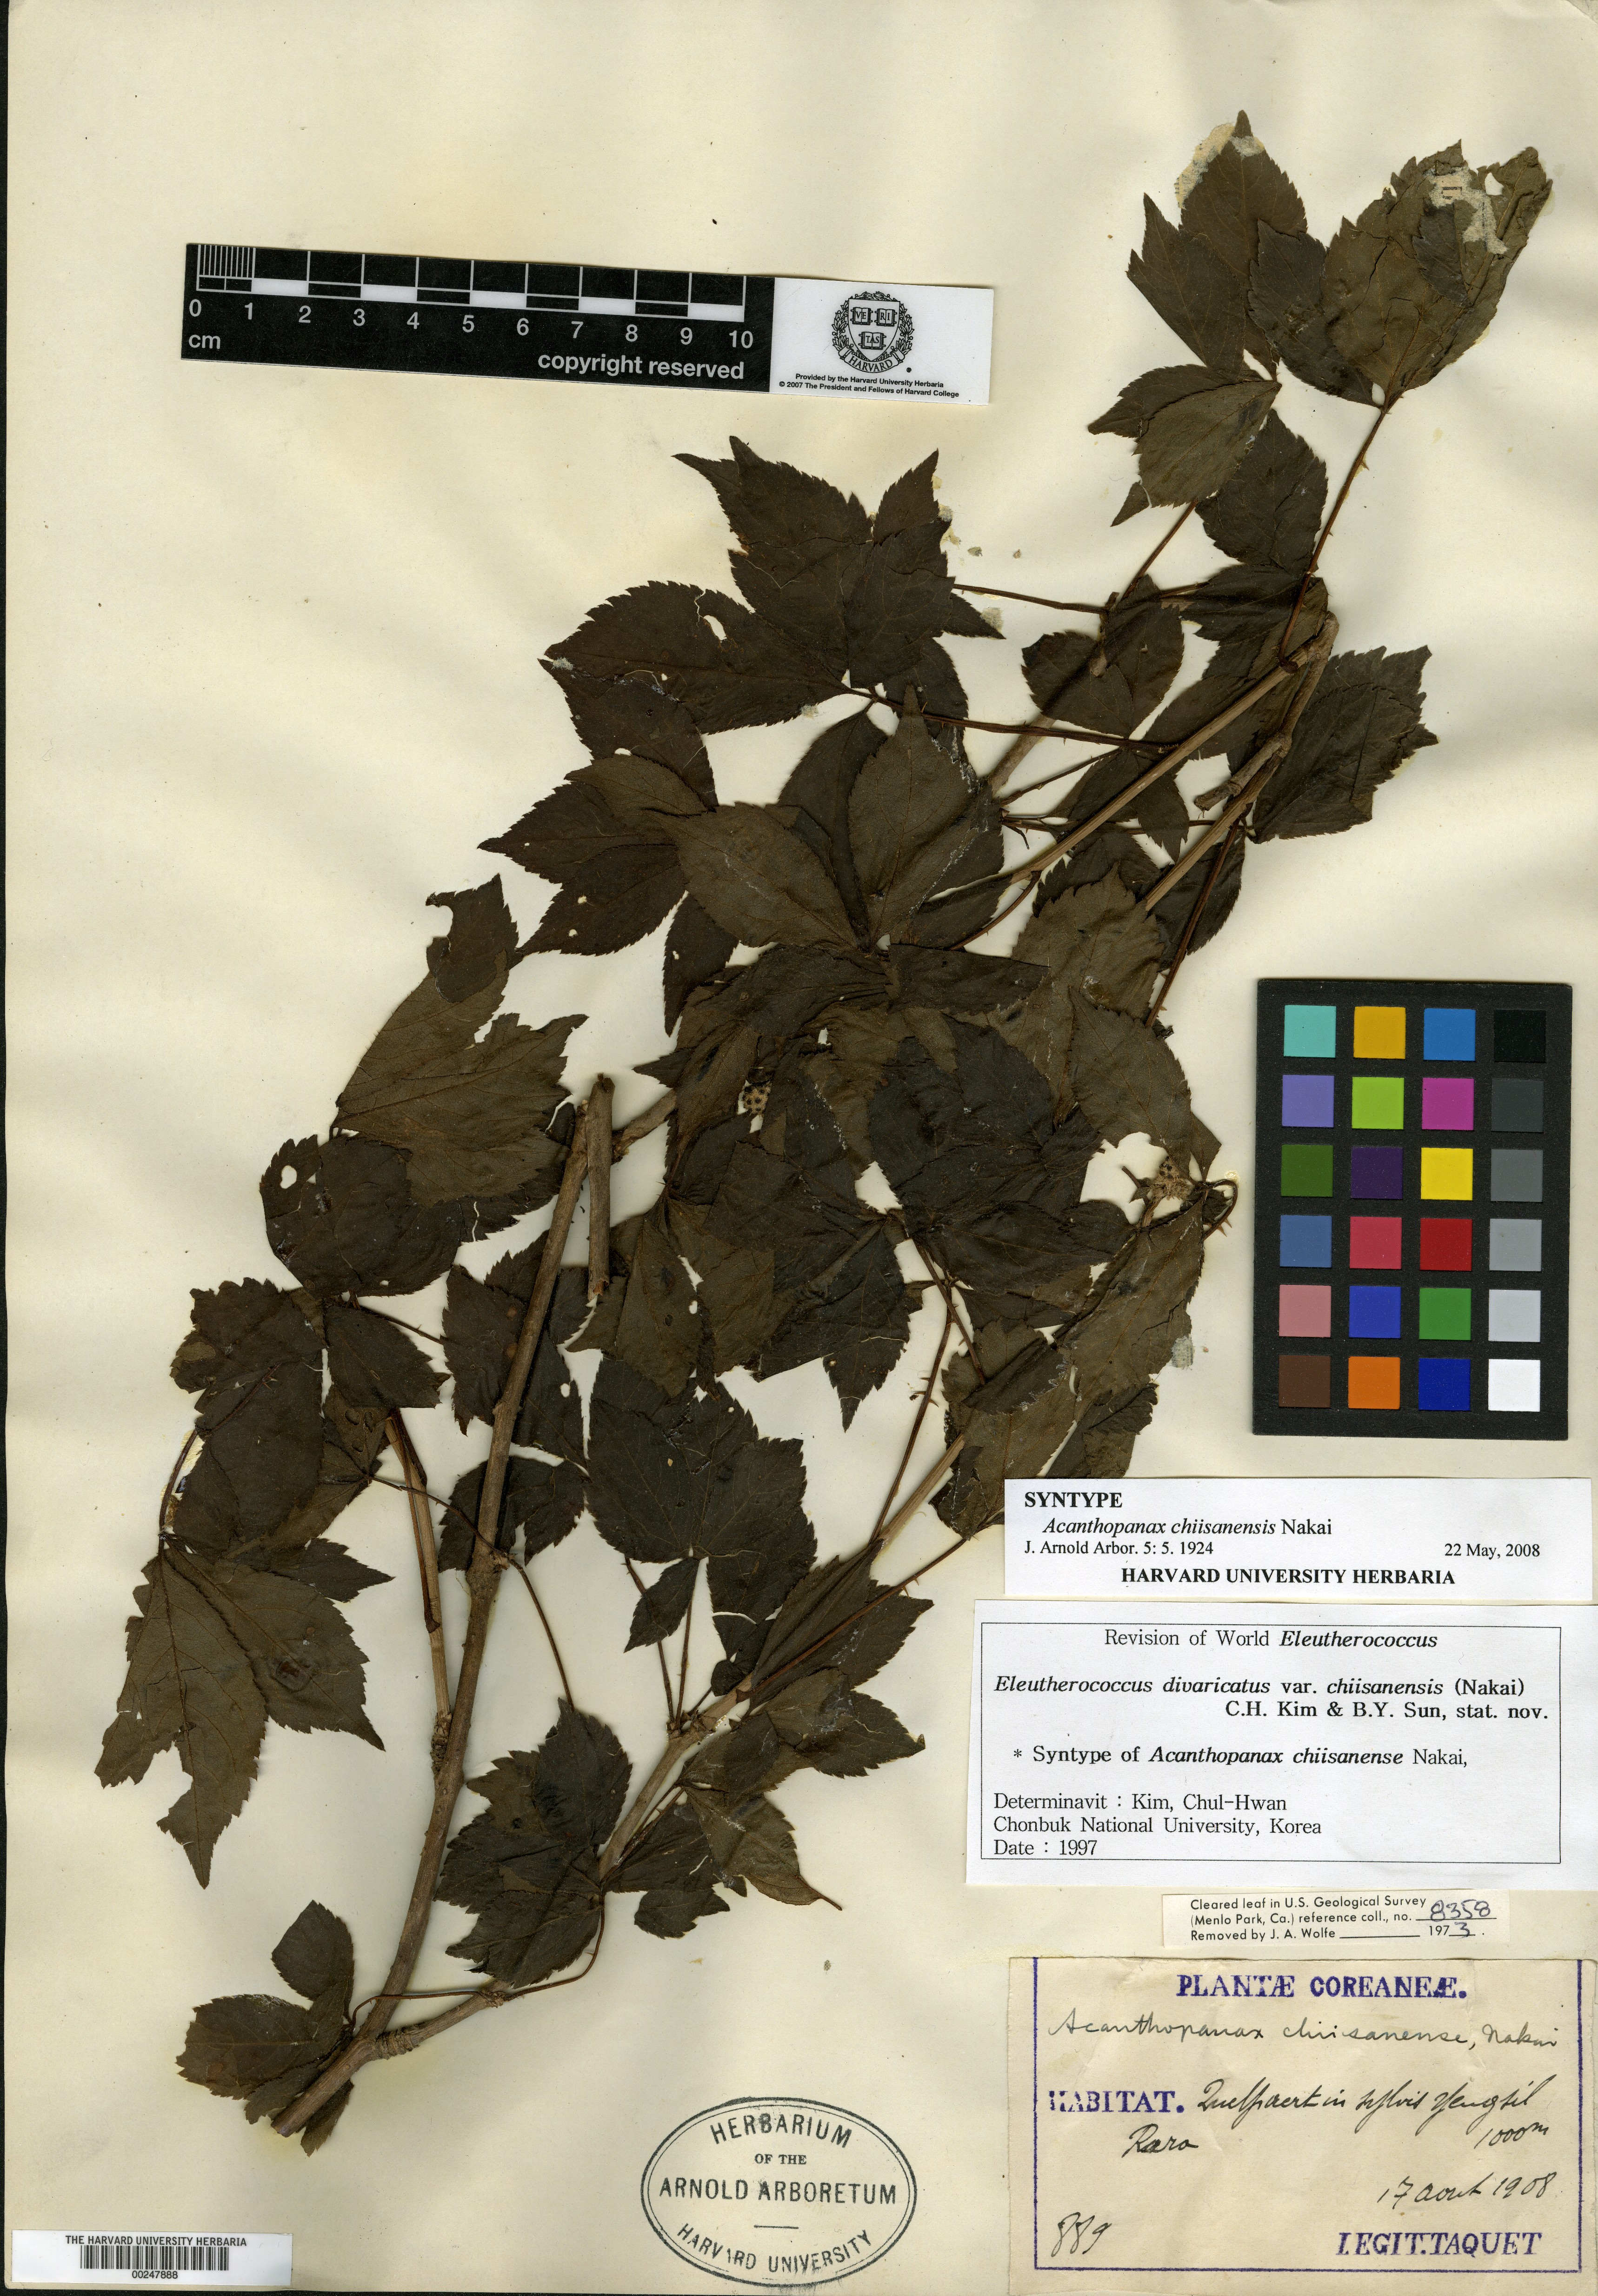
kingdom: Plantae
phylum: Tracheophyta
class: Magnoliopsida
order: Apiales
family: Araliaceae
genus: Eleutherococcus
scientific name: Eleutherococcus divaricatus
